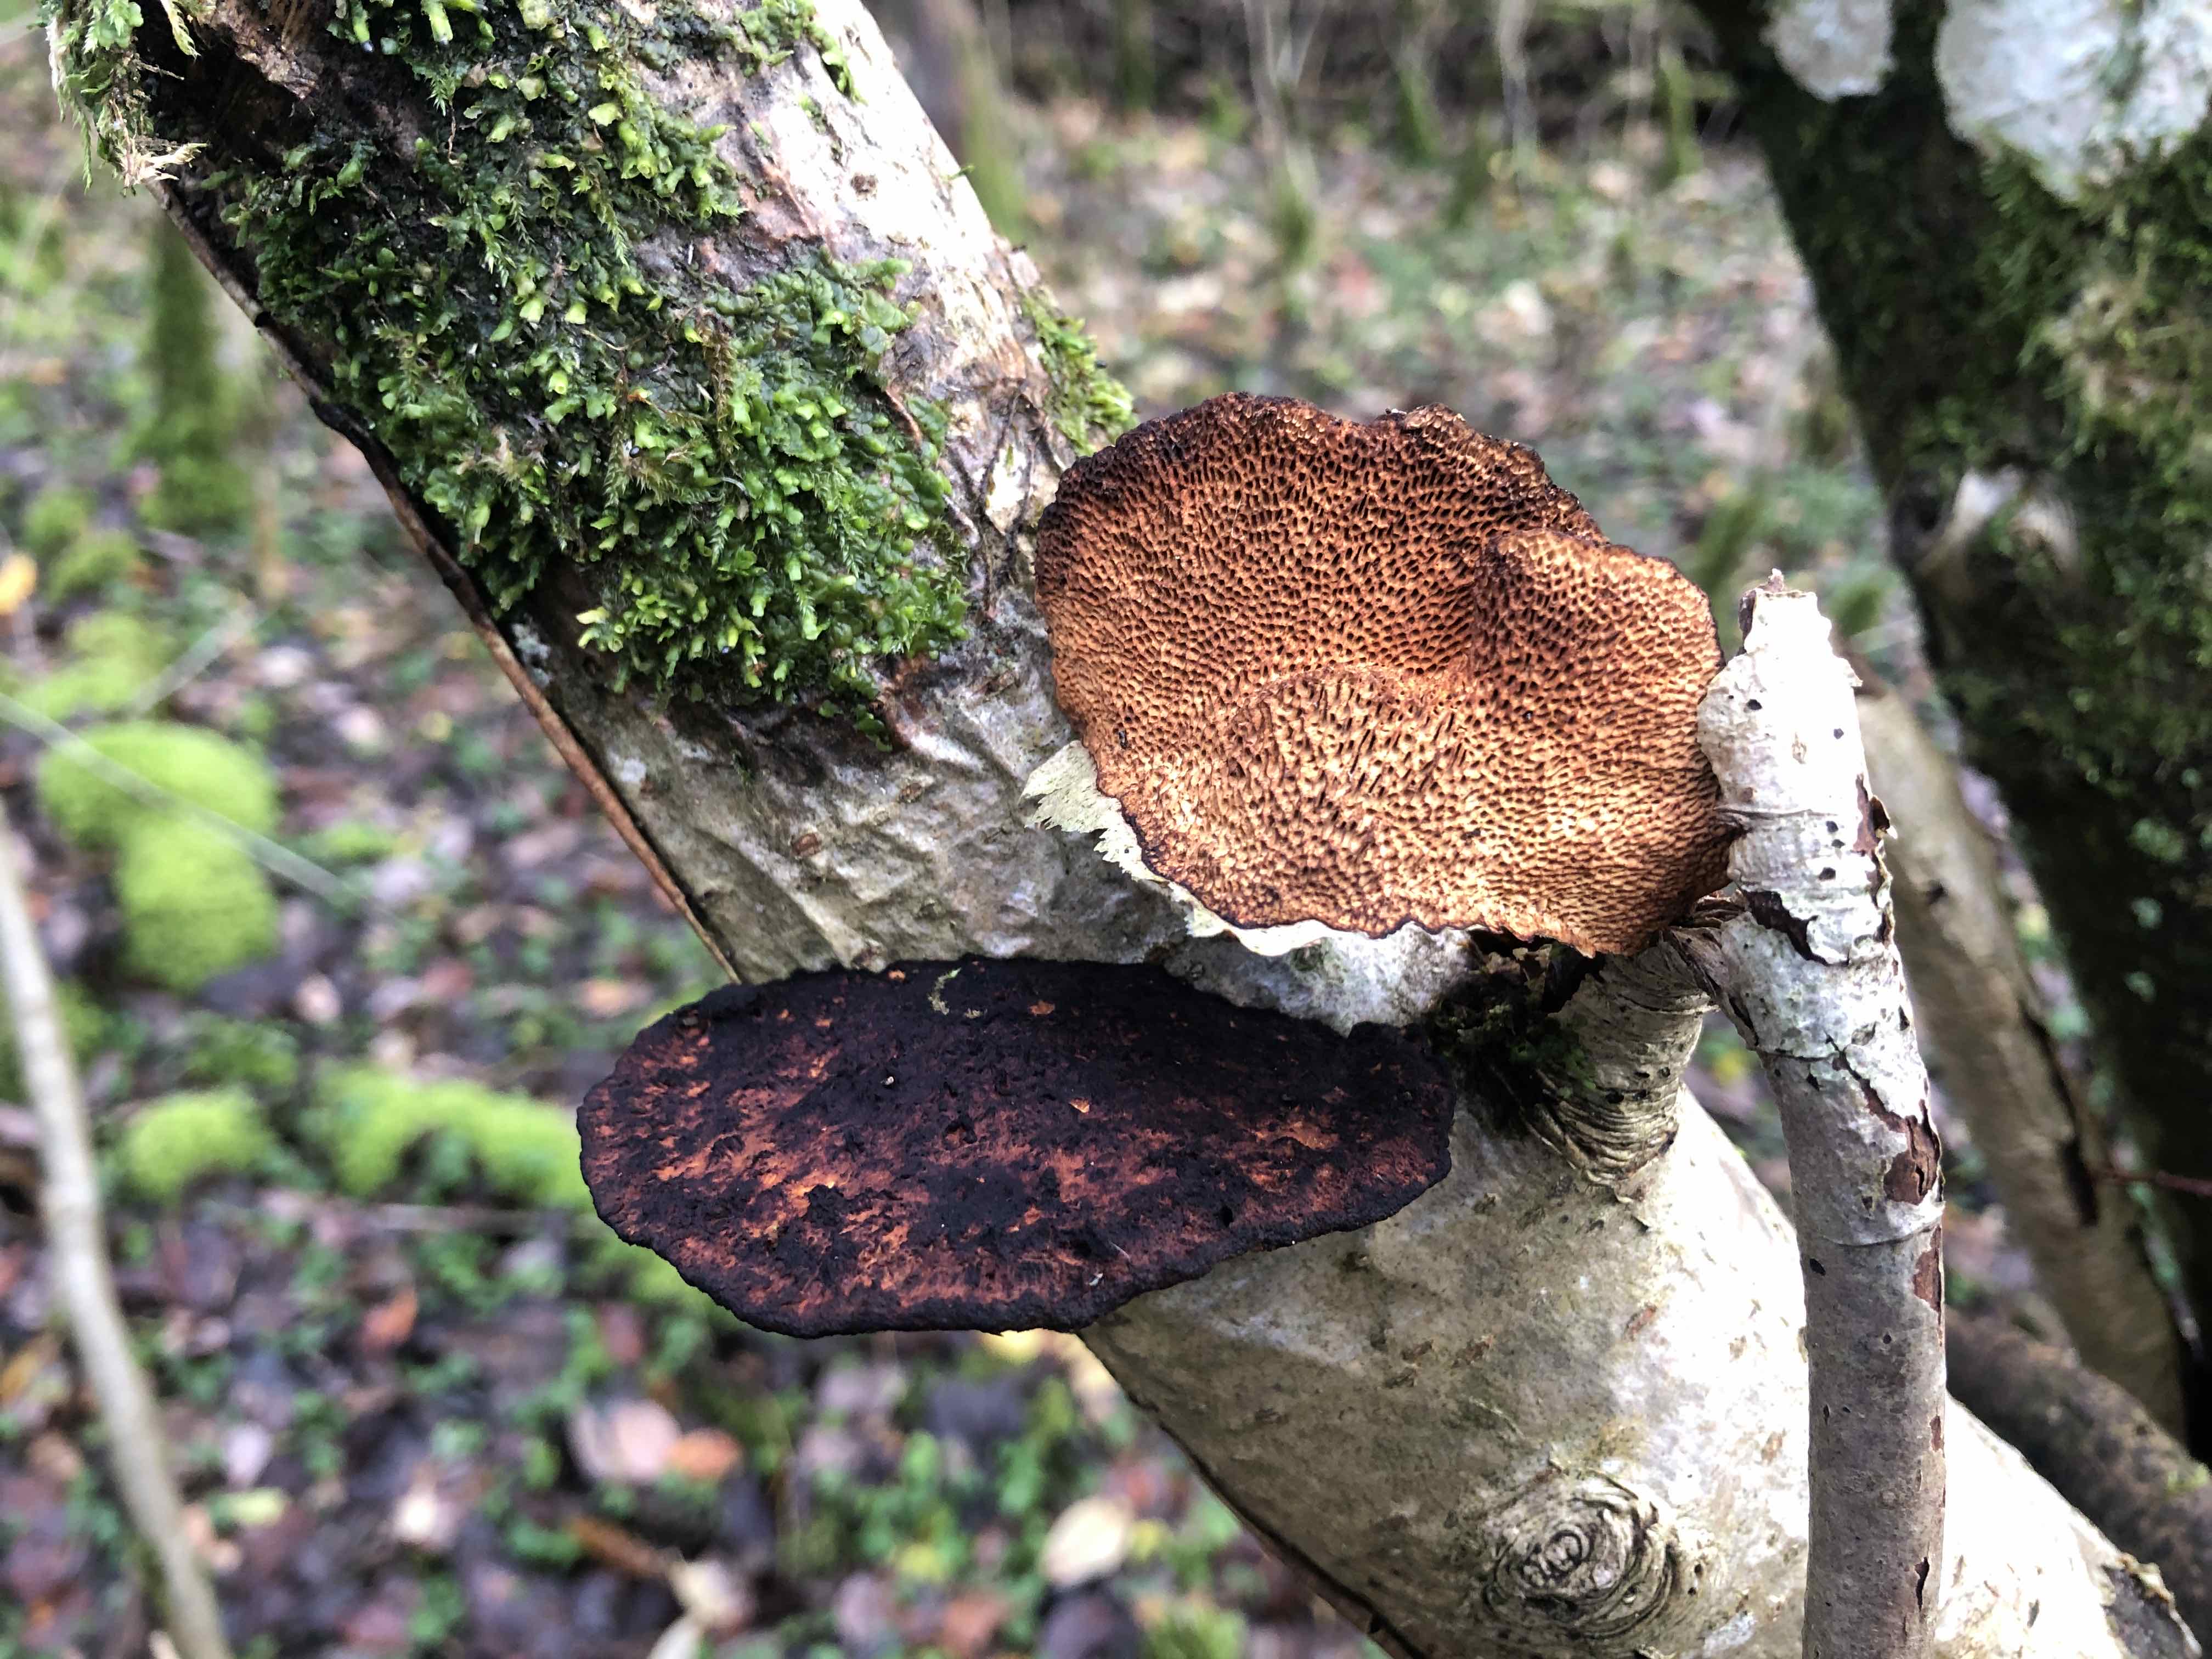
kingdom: Fungi
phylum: Basidiomycota
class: Agaricomycetes
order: Polyporales
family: Polyporaceae
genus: Daedaleopsis
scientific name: Daedaleopsis confragosa
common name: rødmende læderporesvamp
